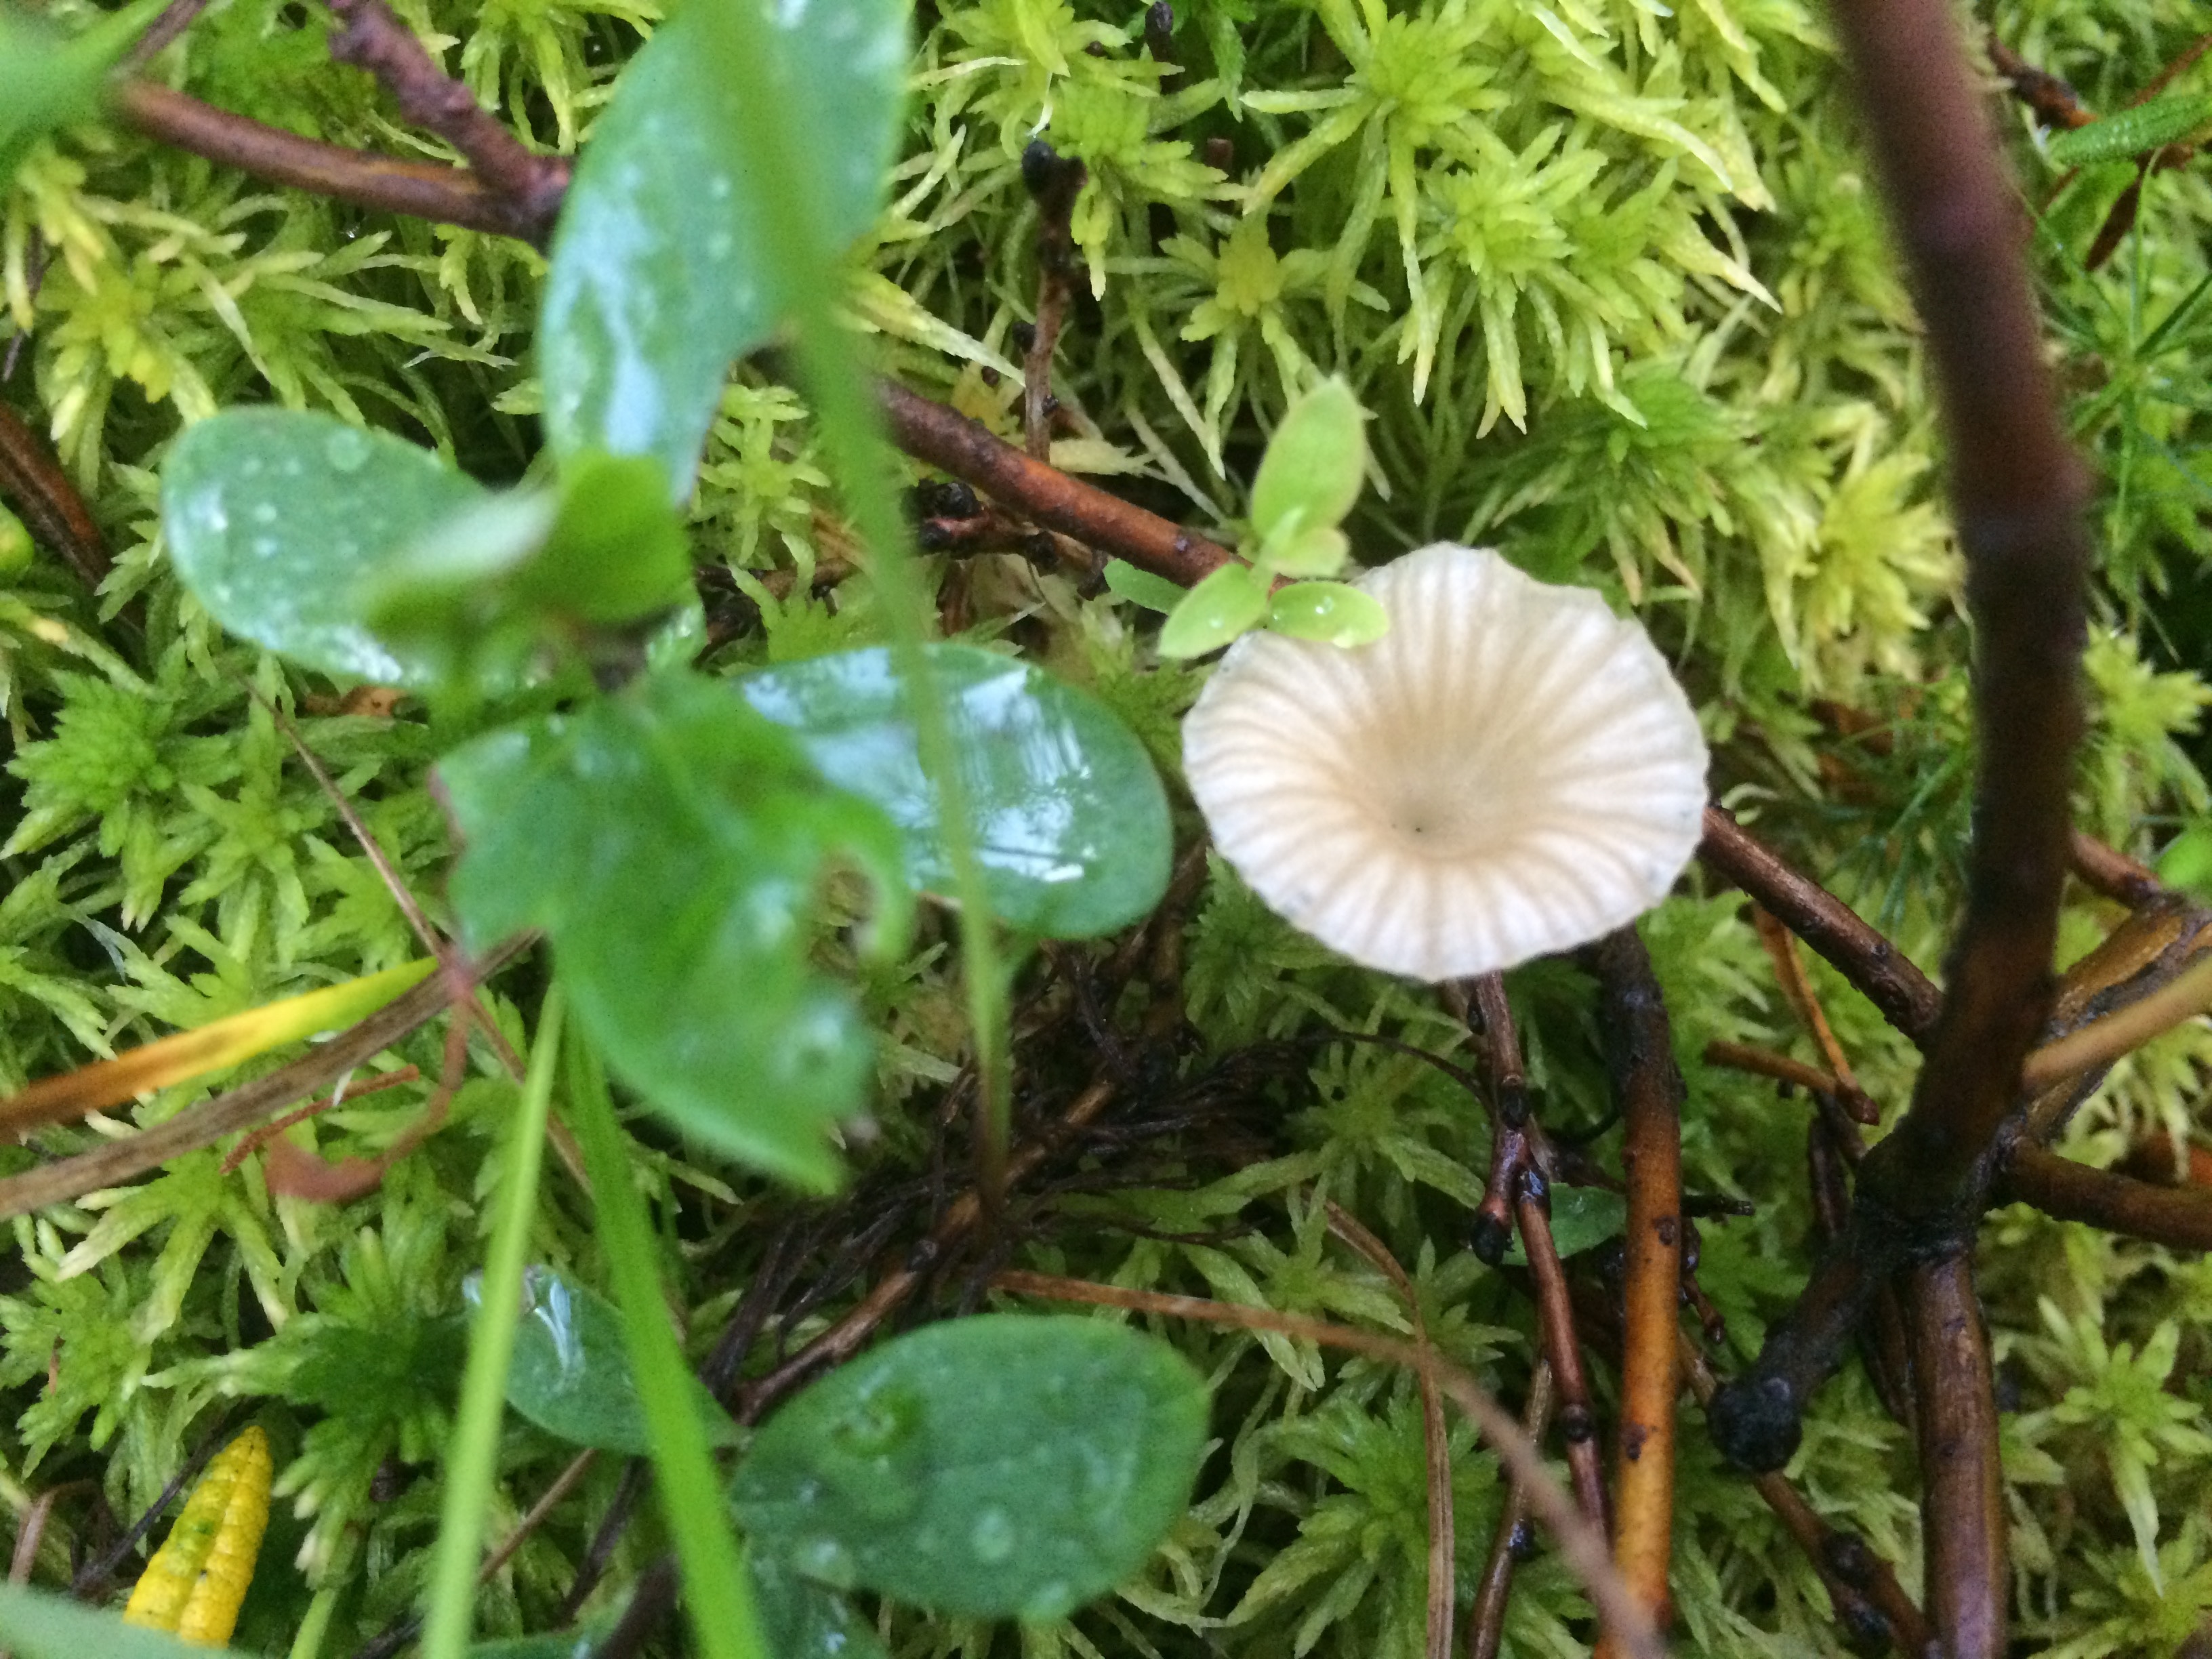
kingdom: Fungi
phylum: Basidiomycota
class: Agaricomycetes
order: Agaricales
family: Hygrophoraceae
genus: Lichenomphalia
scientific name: Lichenomphalia umbellifera
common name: Heath navel
